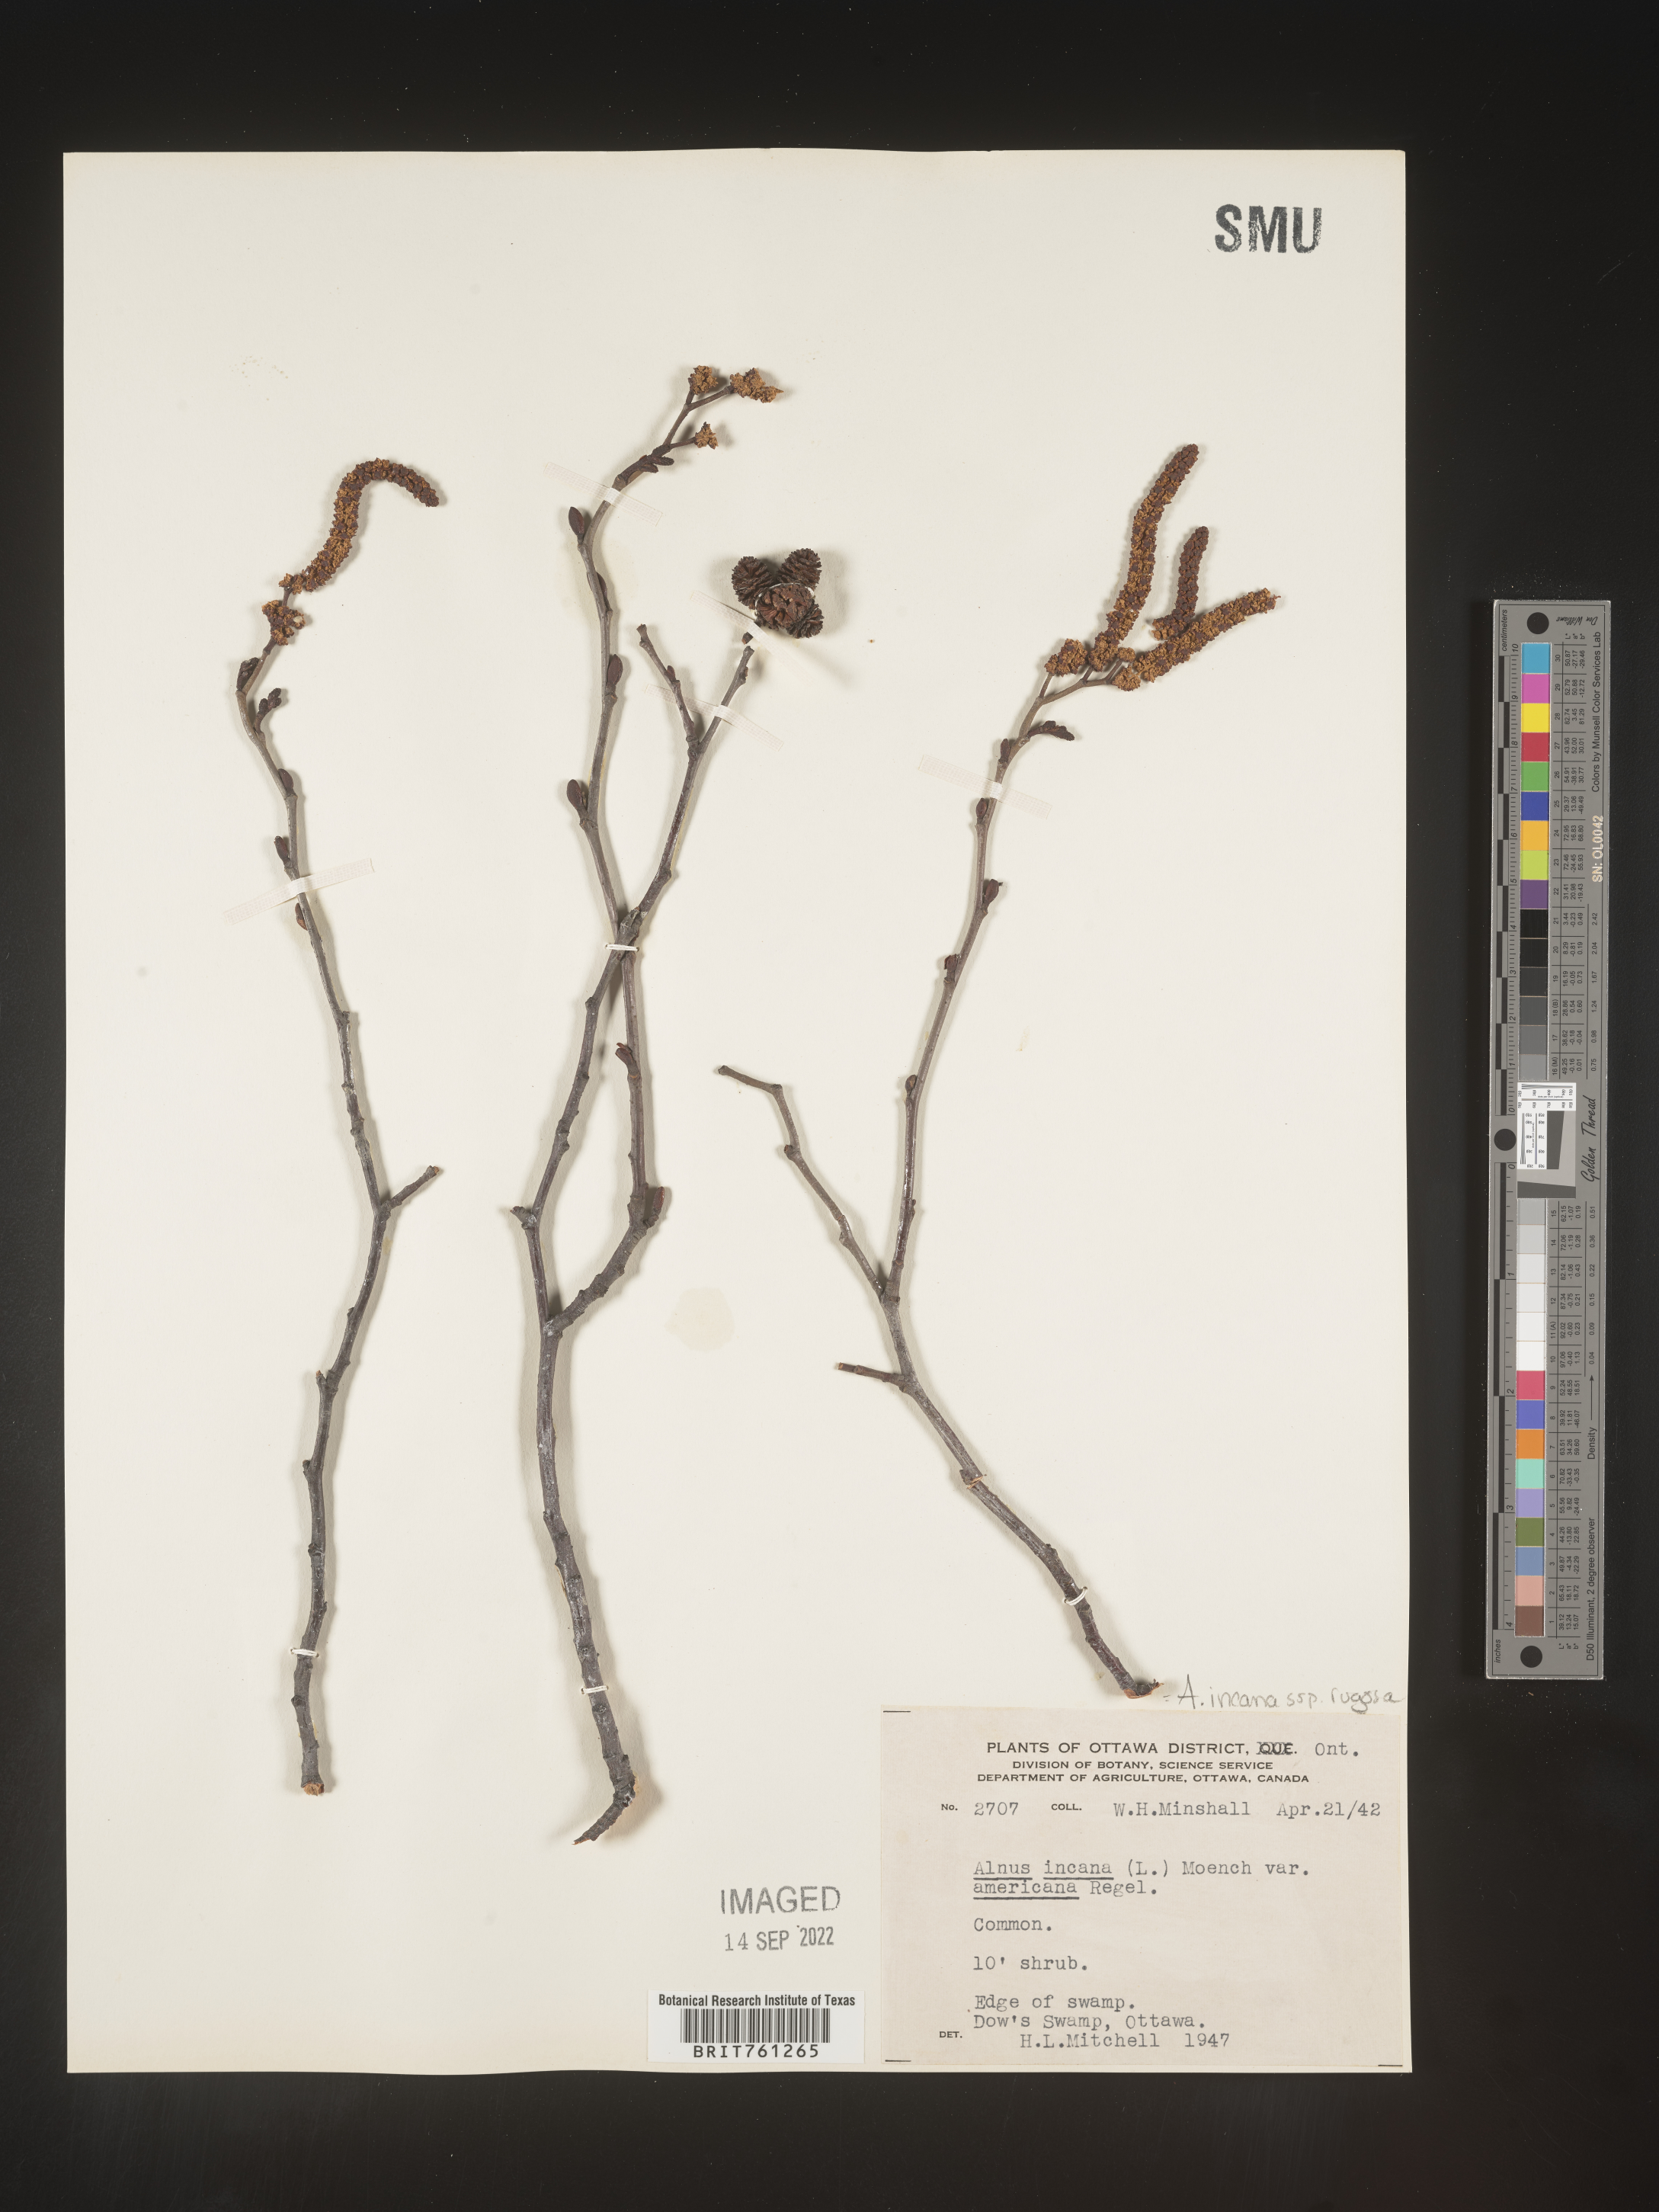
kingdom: Plantae
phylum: Tracheophyta
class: Magnoliopsida
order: Fagales
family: Betulaceae
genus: Alnus
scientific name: Alnus incana
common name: Grey alder
